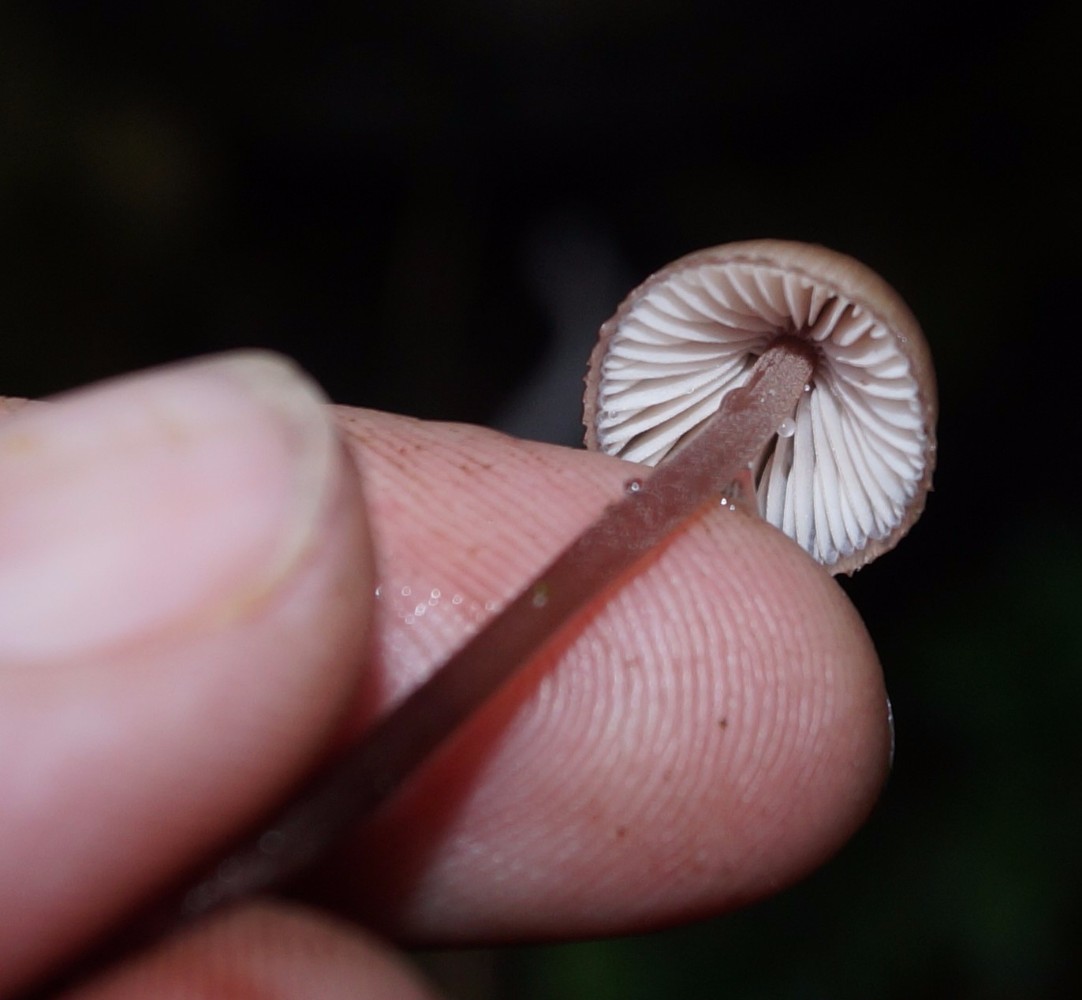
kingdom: Fungi
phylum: Basidiomycota
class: Agaricomycetes
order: Agaricales
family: Mycenaceae
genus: Mycena
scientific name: Mycena haematopus
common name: blødende huesvamp
